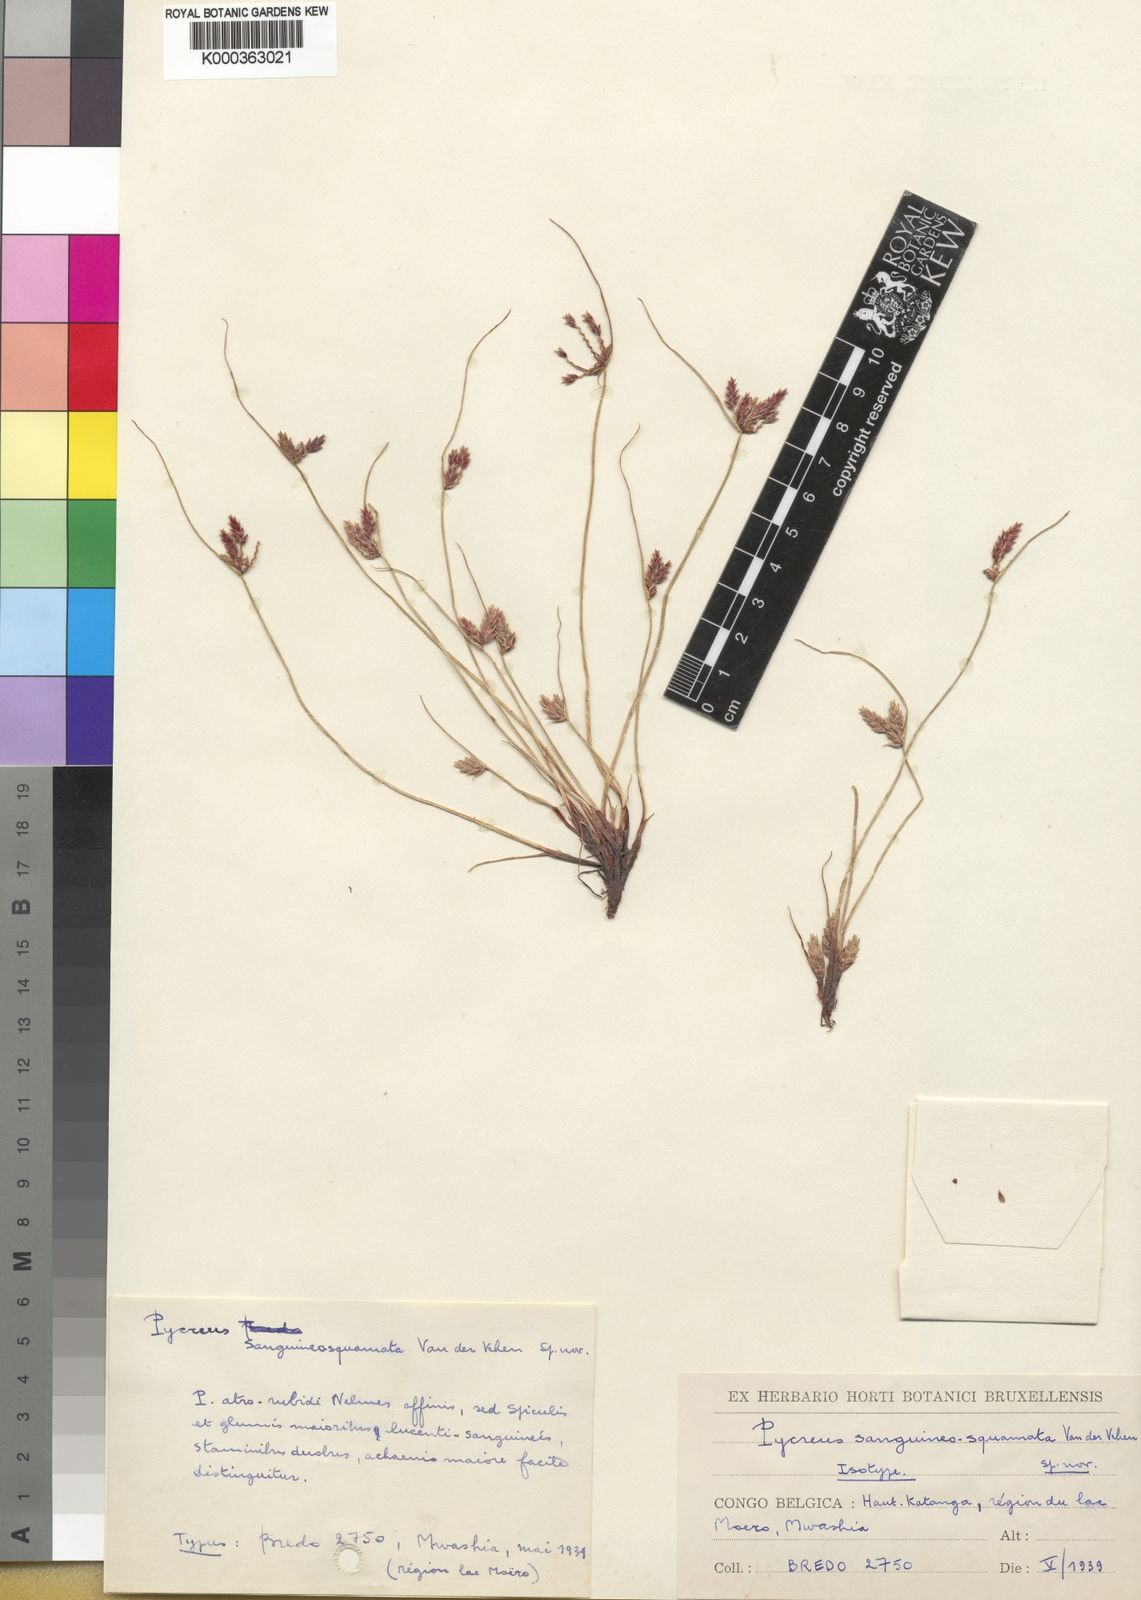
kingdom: Plantae
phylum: Tracheophyta
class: Liliopsida
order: Poales
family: Cyperaceae
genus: Cyperus
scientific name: Cyperus fontinalis
